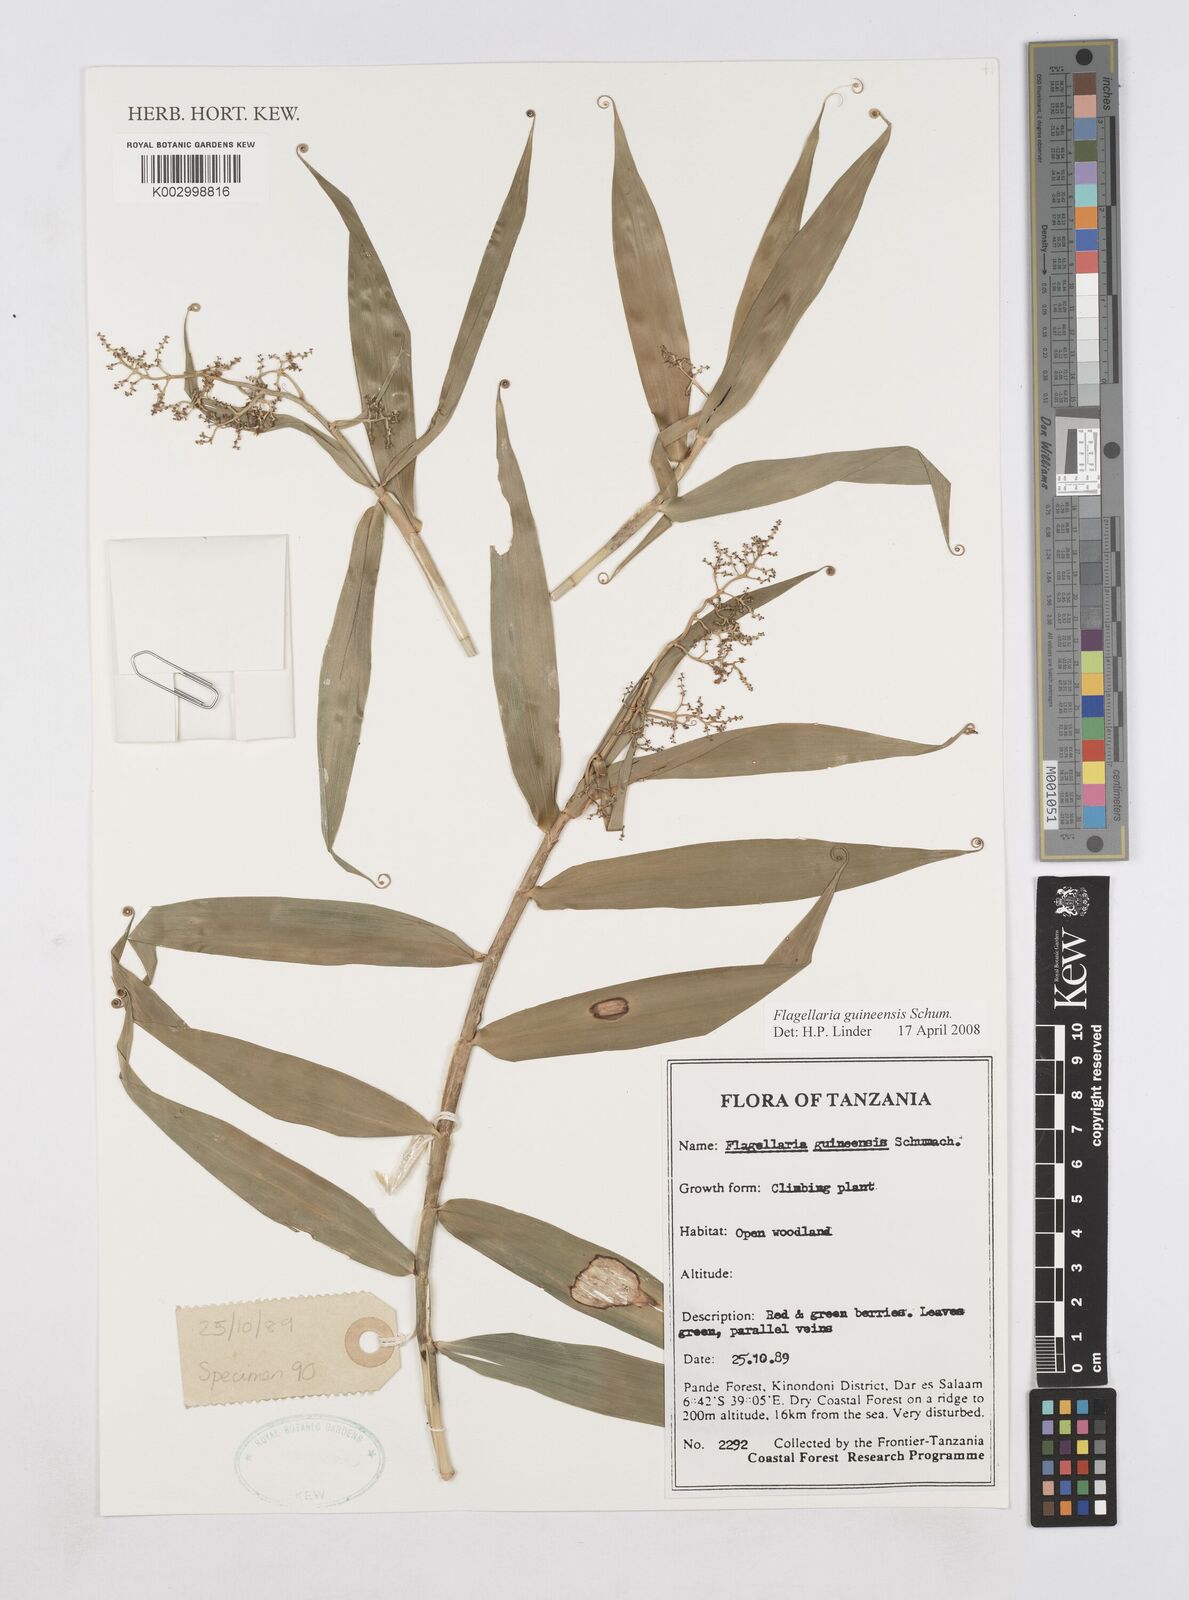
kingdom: Plantae
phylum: Tracheophyta
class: Liliopsida
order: Poales
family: Flagellariaceae
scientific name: Flagellariaceae
